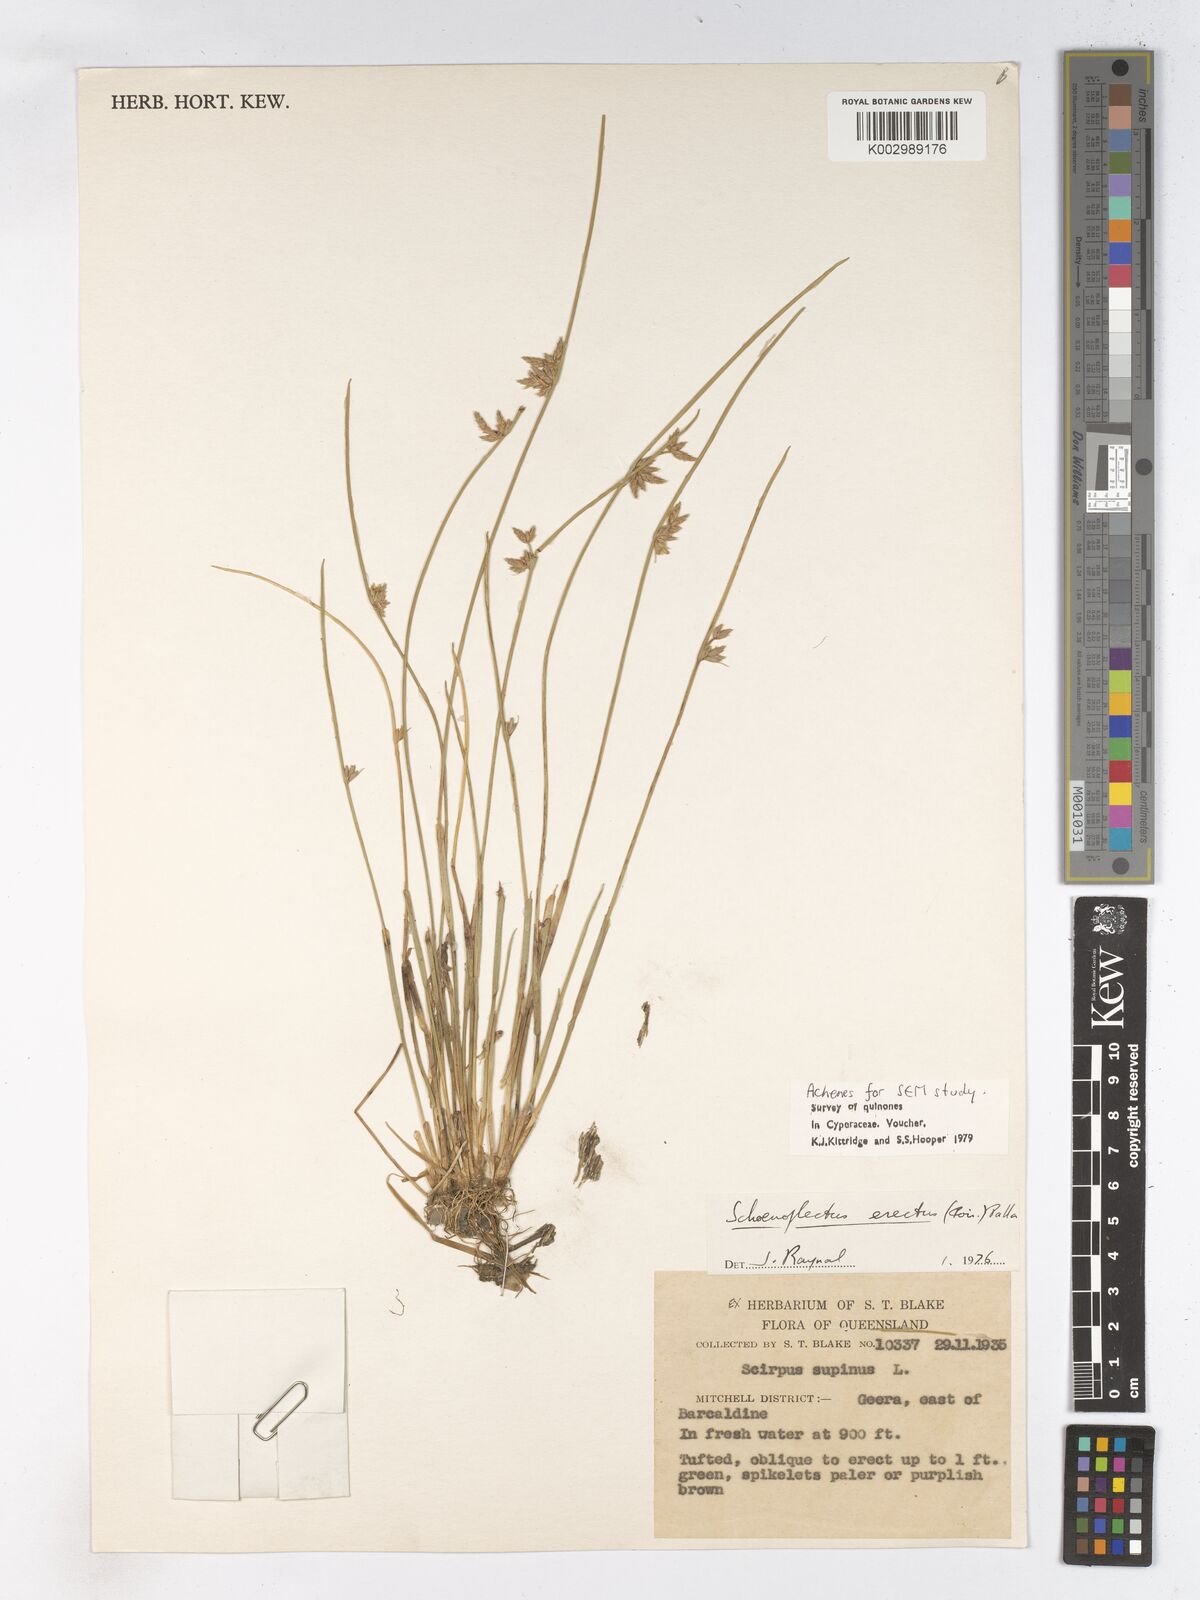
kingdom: Plantae
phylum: Tracheophyta
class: Liliopsida
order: Poales
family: Cyperaceae
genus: Schoenoplectiella
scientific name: Schoenoplectiella erecta
